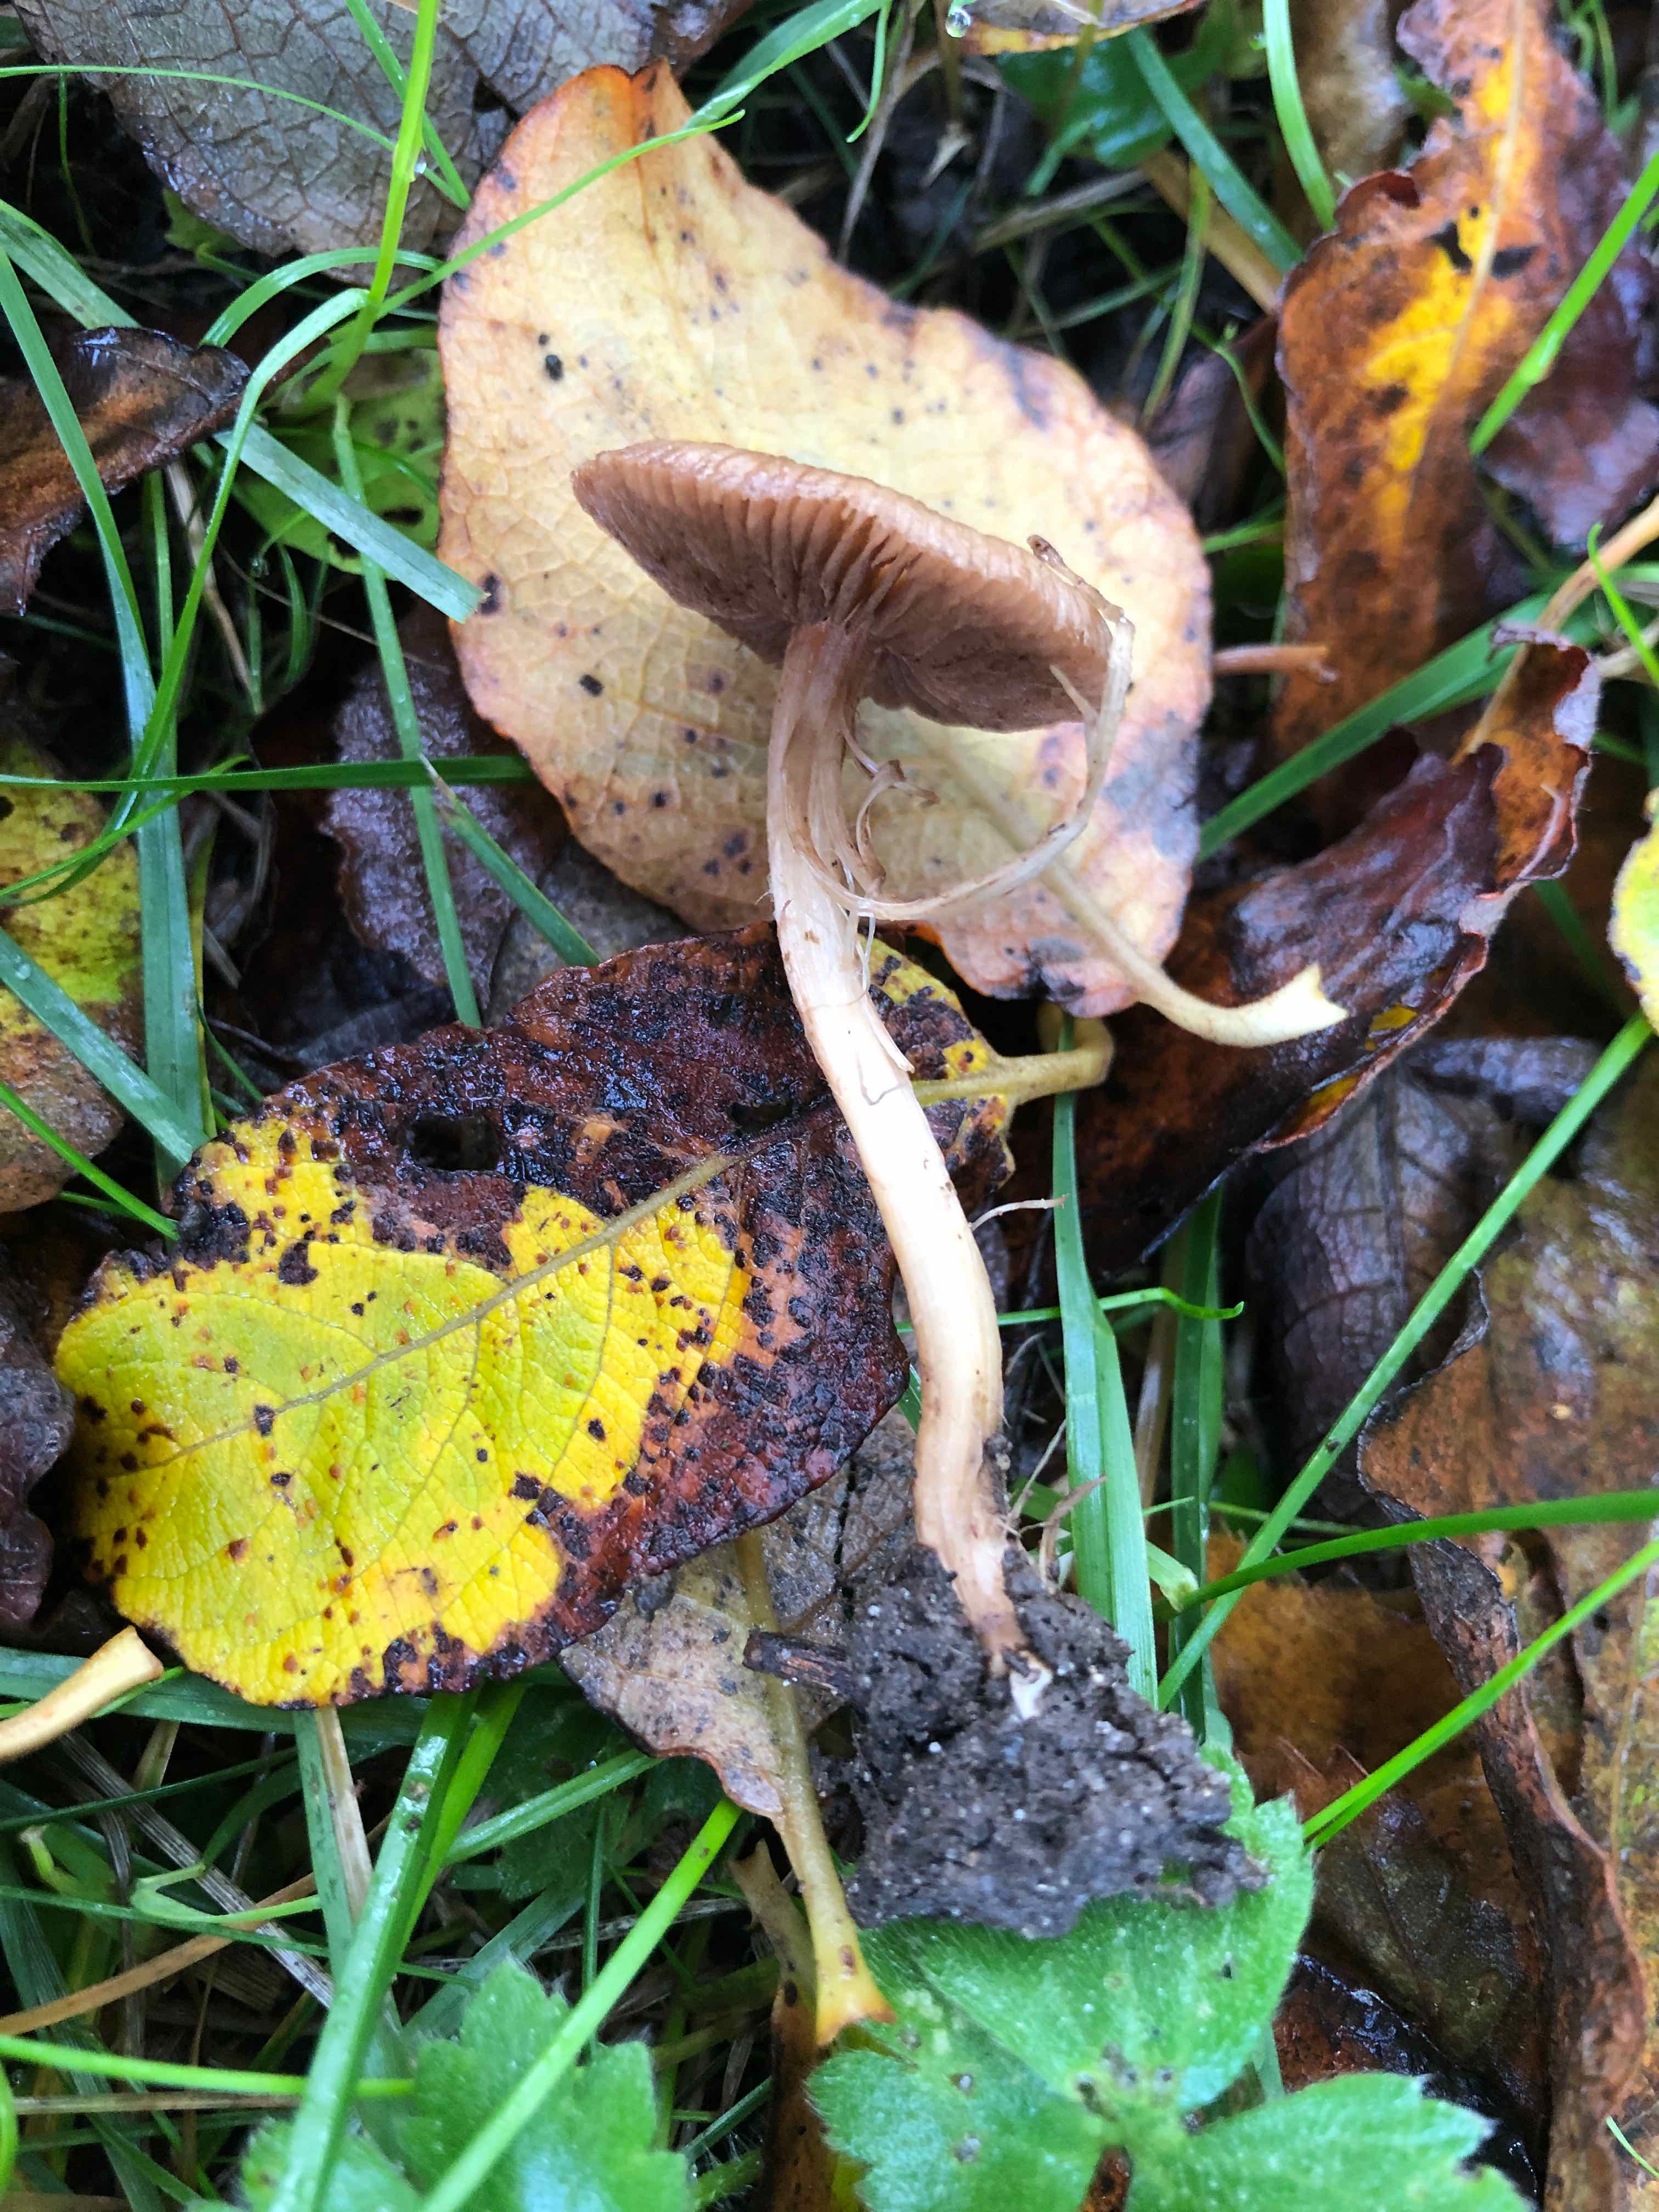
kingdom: Fungi
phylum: Basidiomycota
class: Agaricomycetes
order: Agaricales
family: Inocybaceae
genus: Inocybe
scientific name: Inocybe
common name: trævlhat
